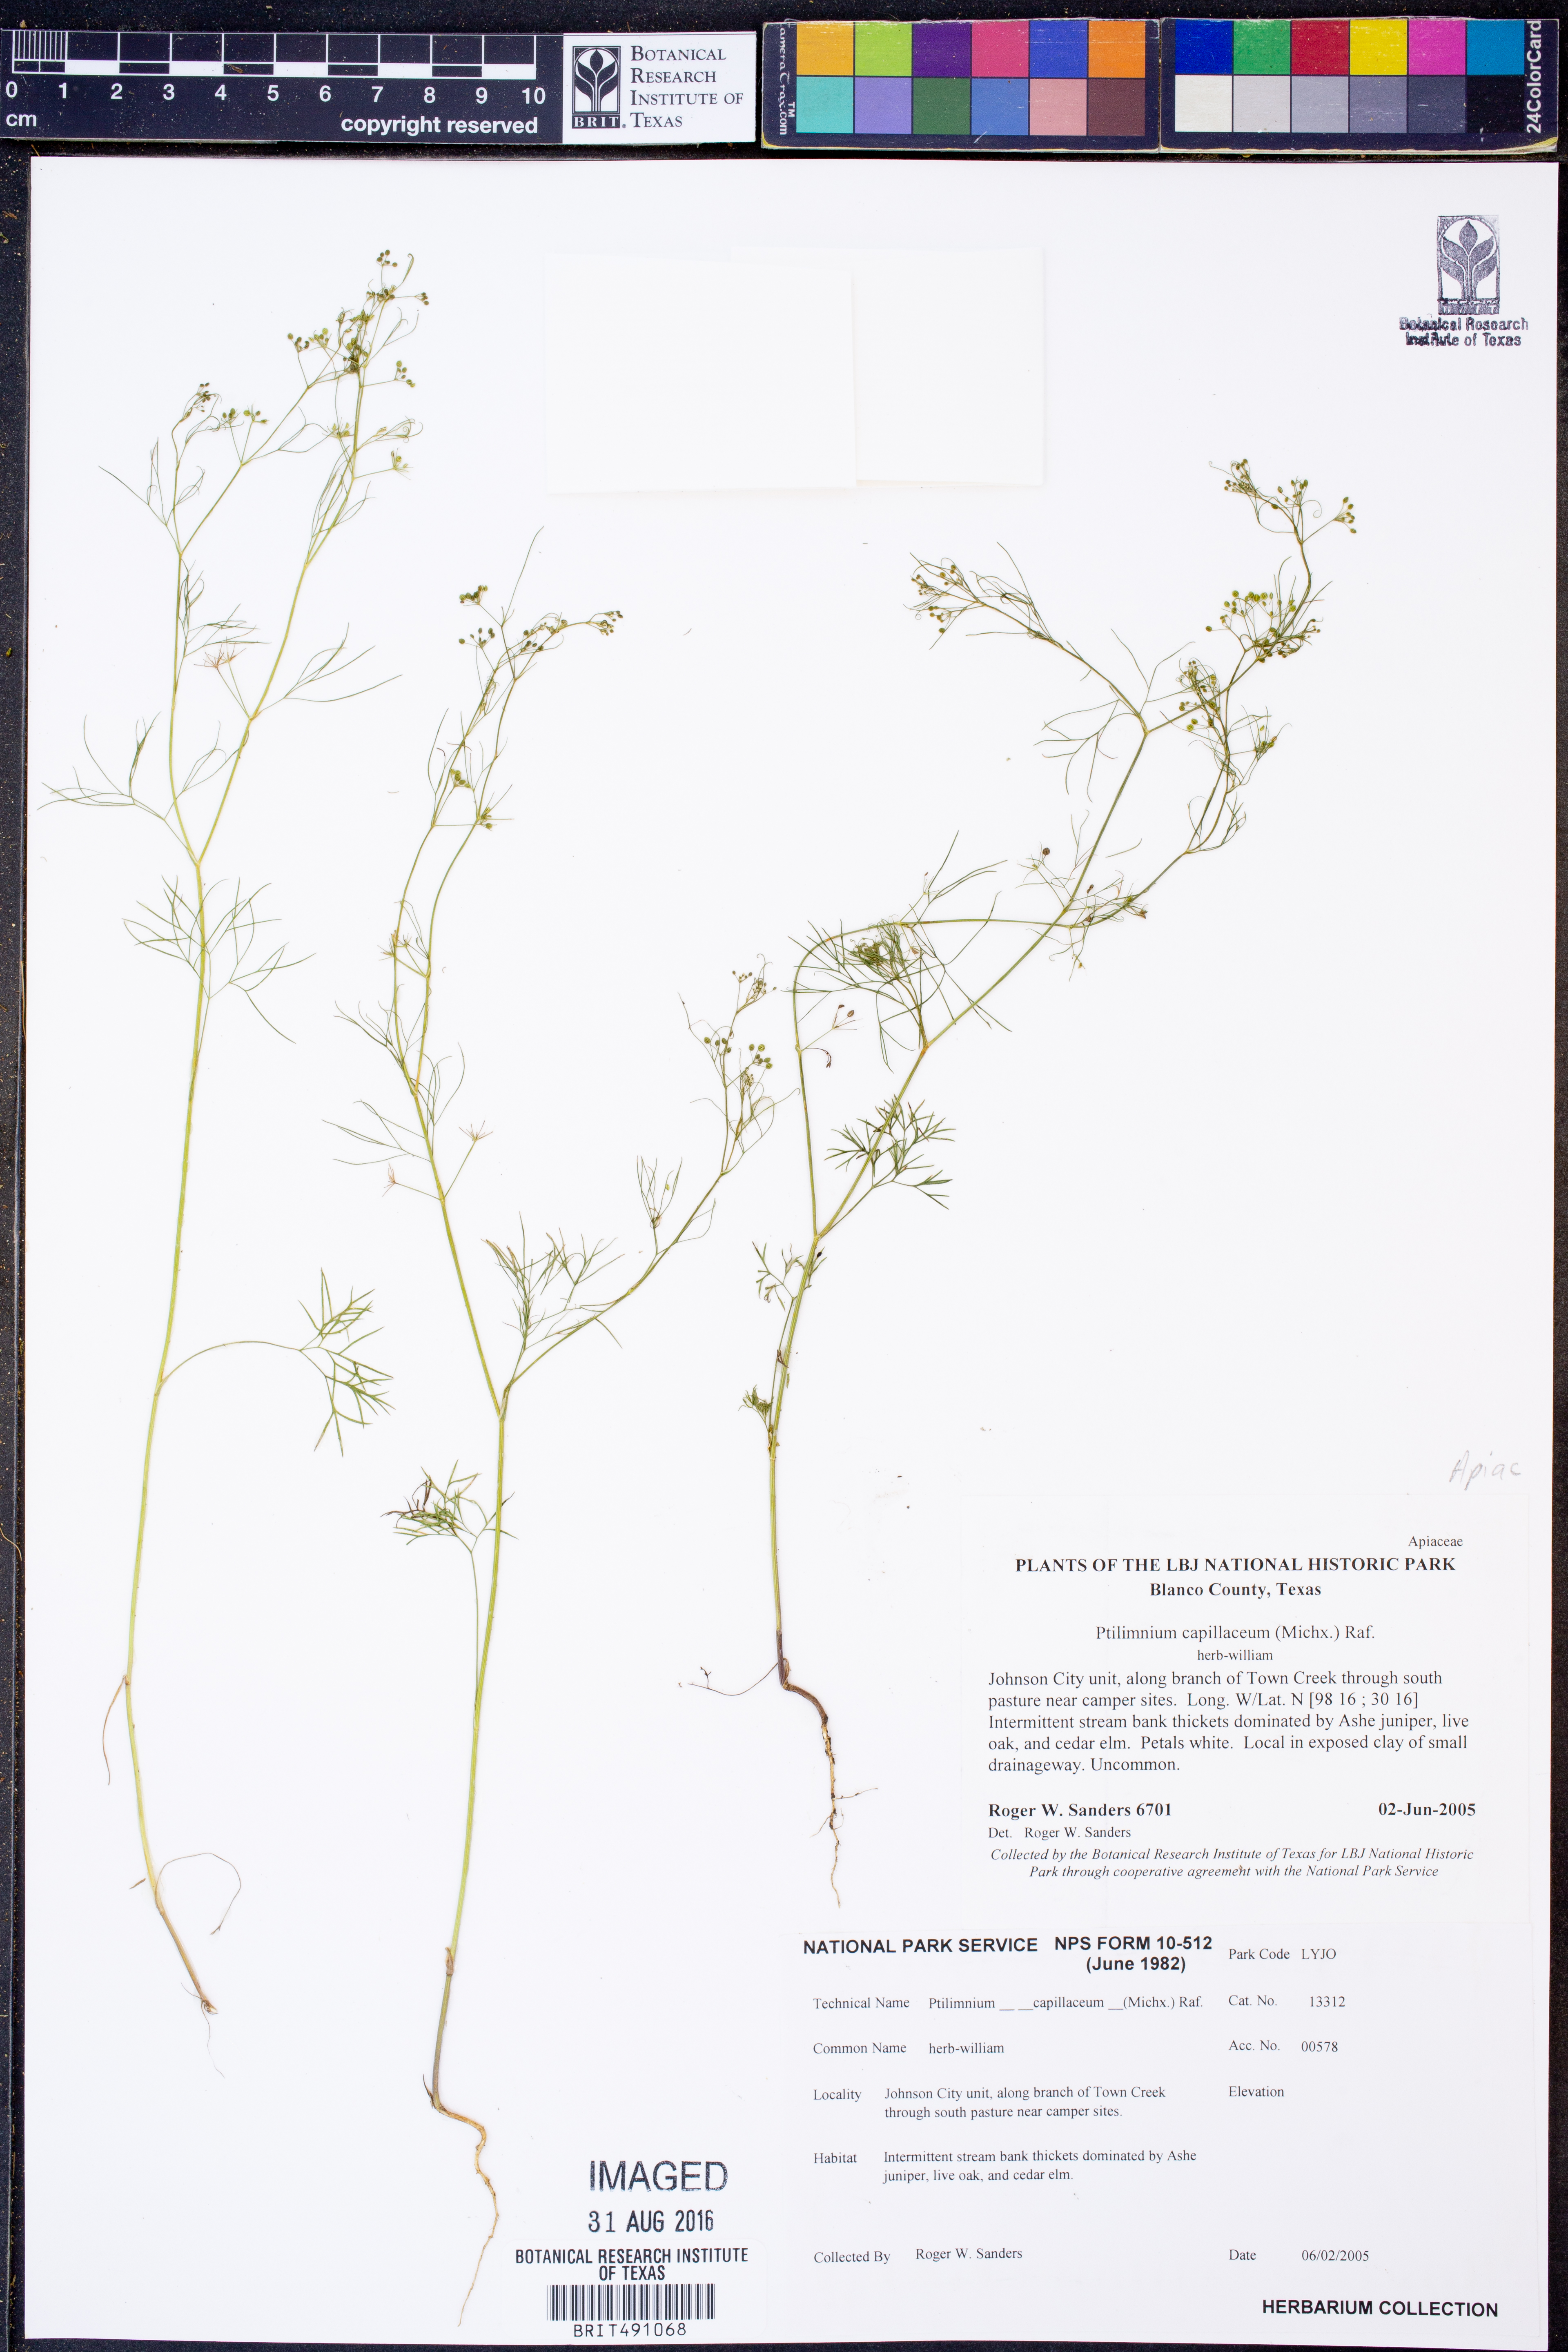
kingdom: Plantae
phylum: Tracheophyta
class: Magnoliopsida
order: Apiales
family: Apiaceae
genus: Ptilimnium
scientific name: Ptilimnium capillaceum
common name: Herbwilliam
